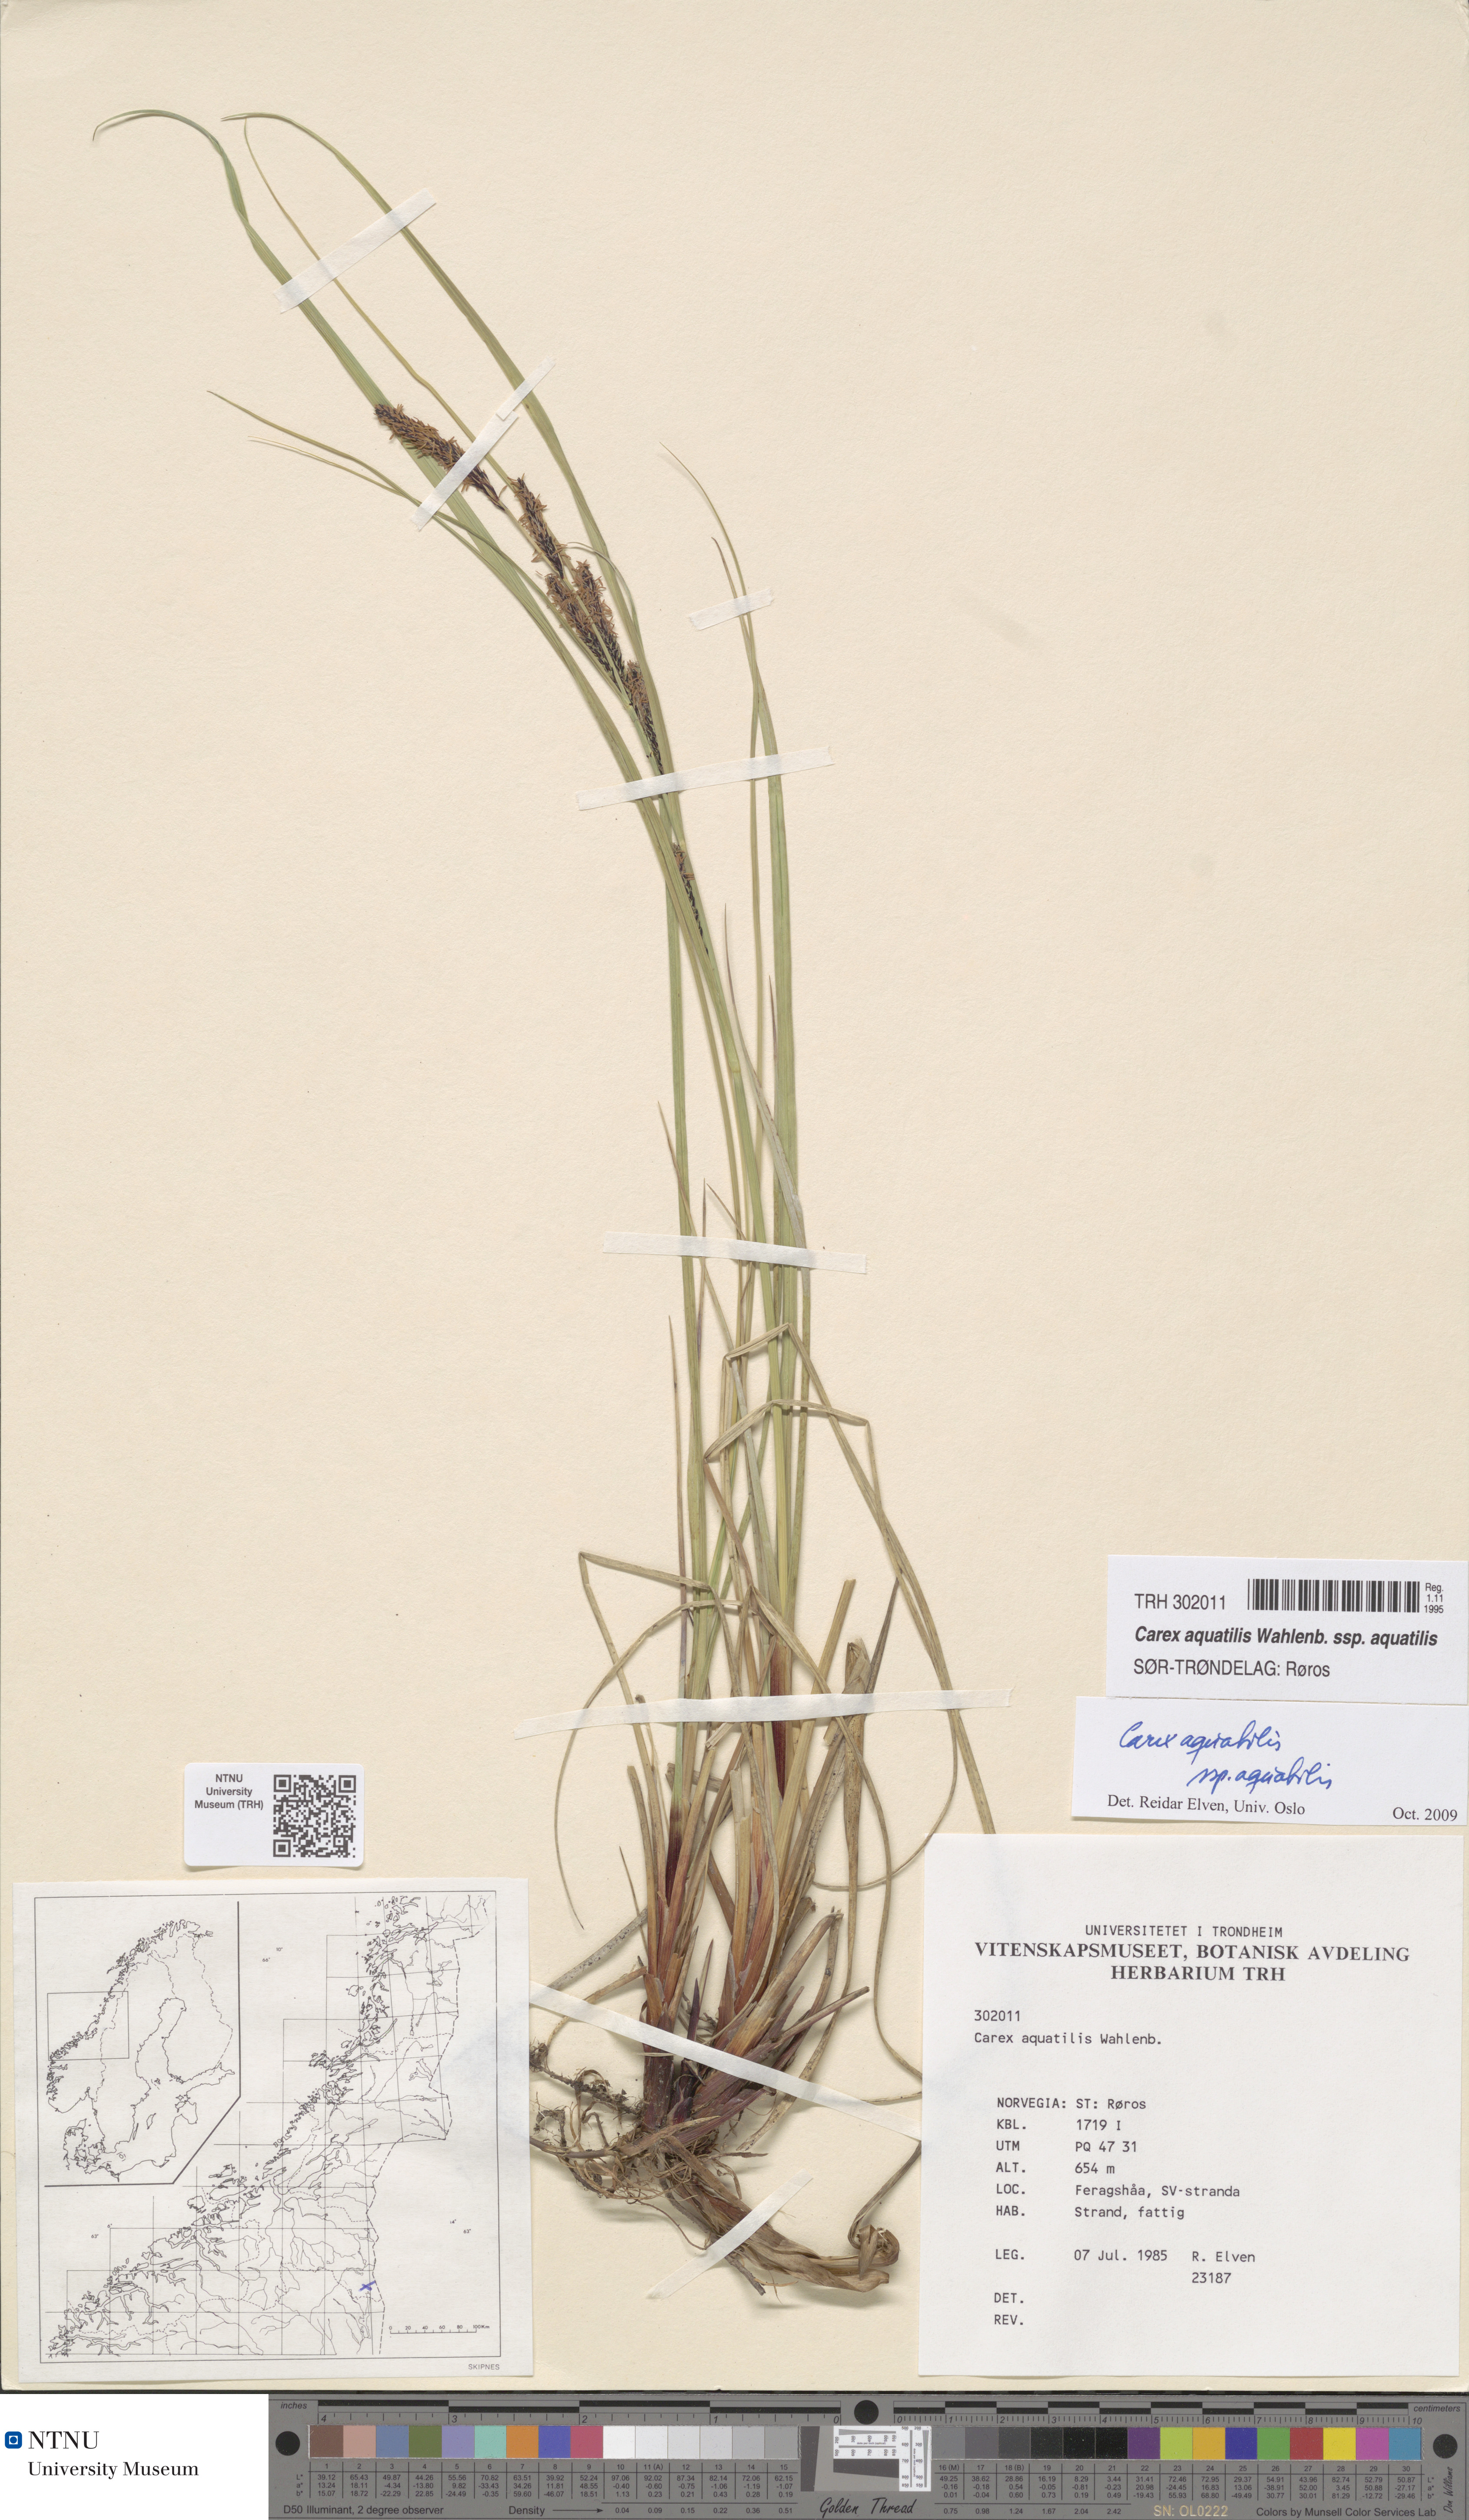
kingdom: Plantae
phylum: Tracheophyta
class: Liliopsida
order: Poales
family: Cyperaceae
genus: Carex
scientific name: Carex aquatilis
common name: Water sedge
